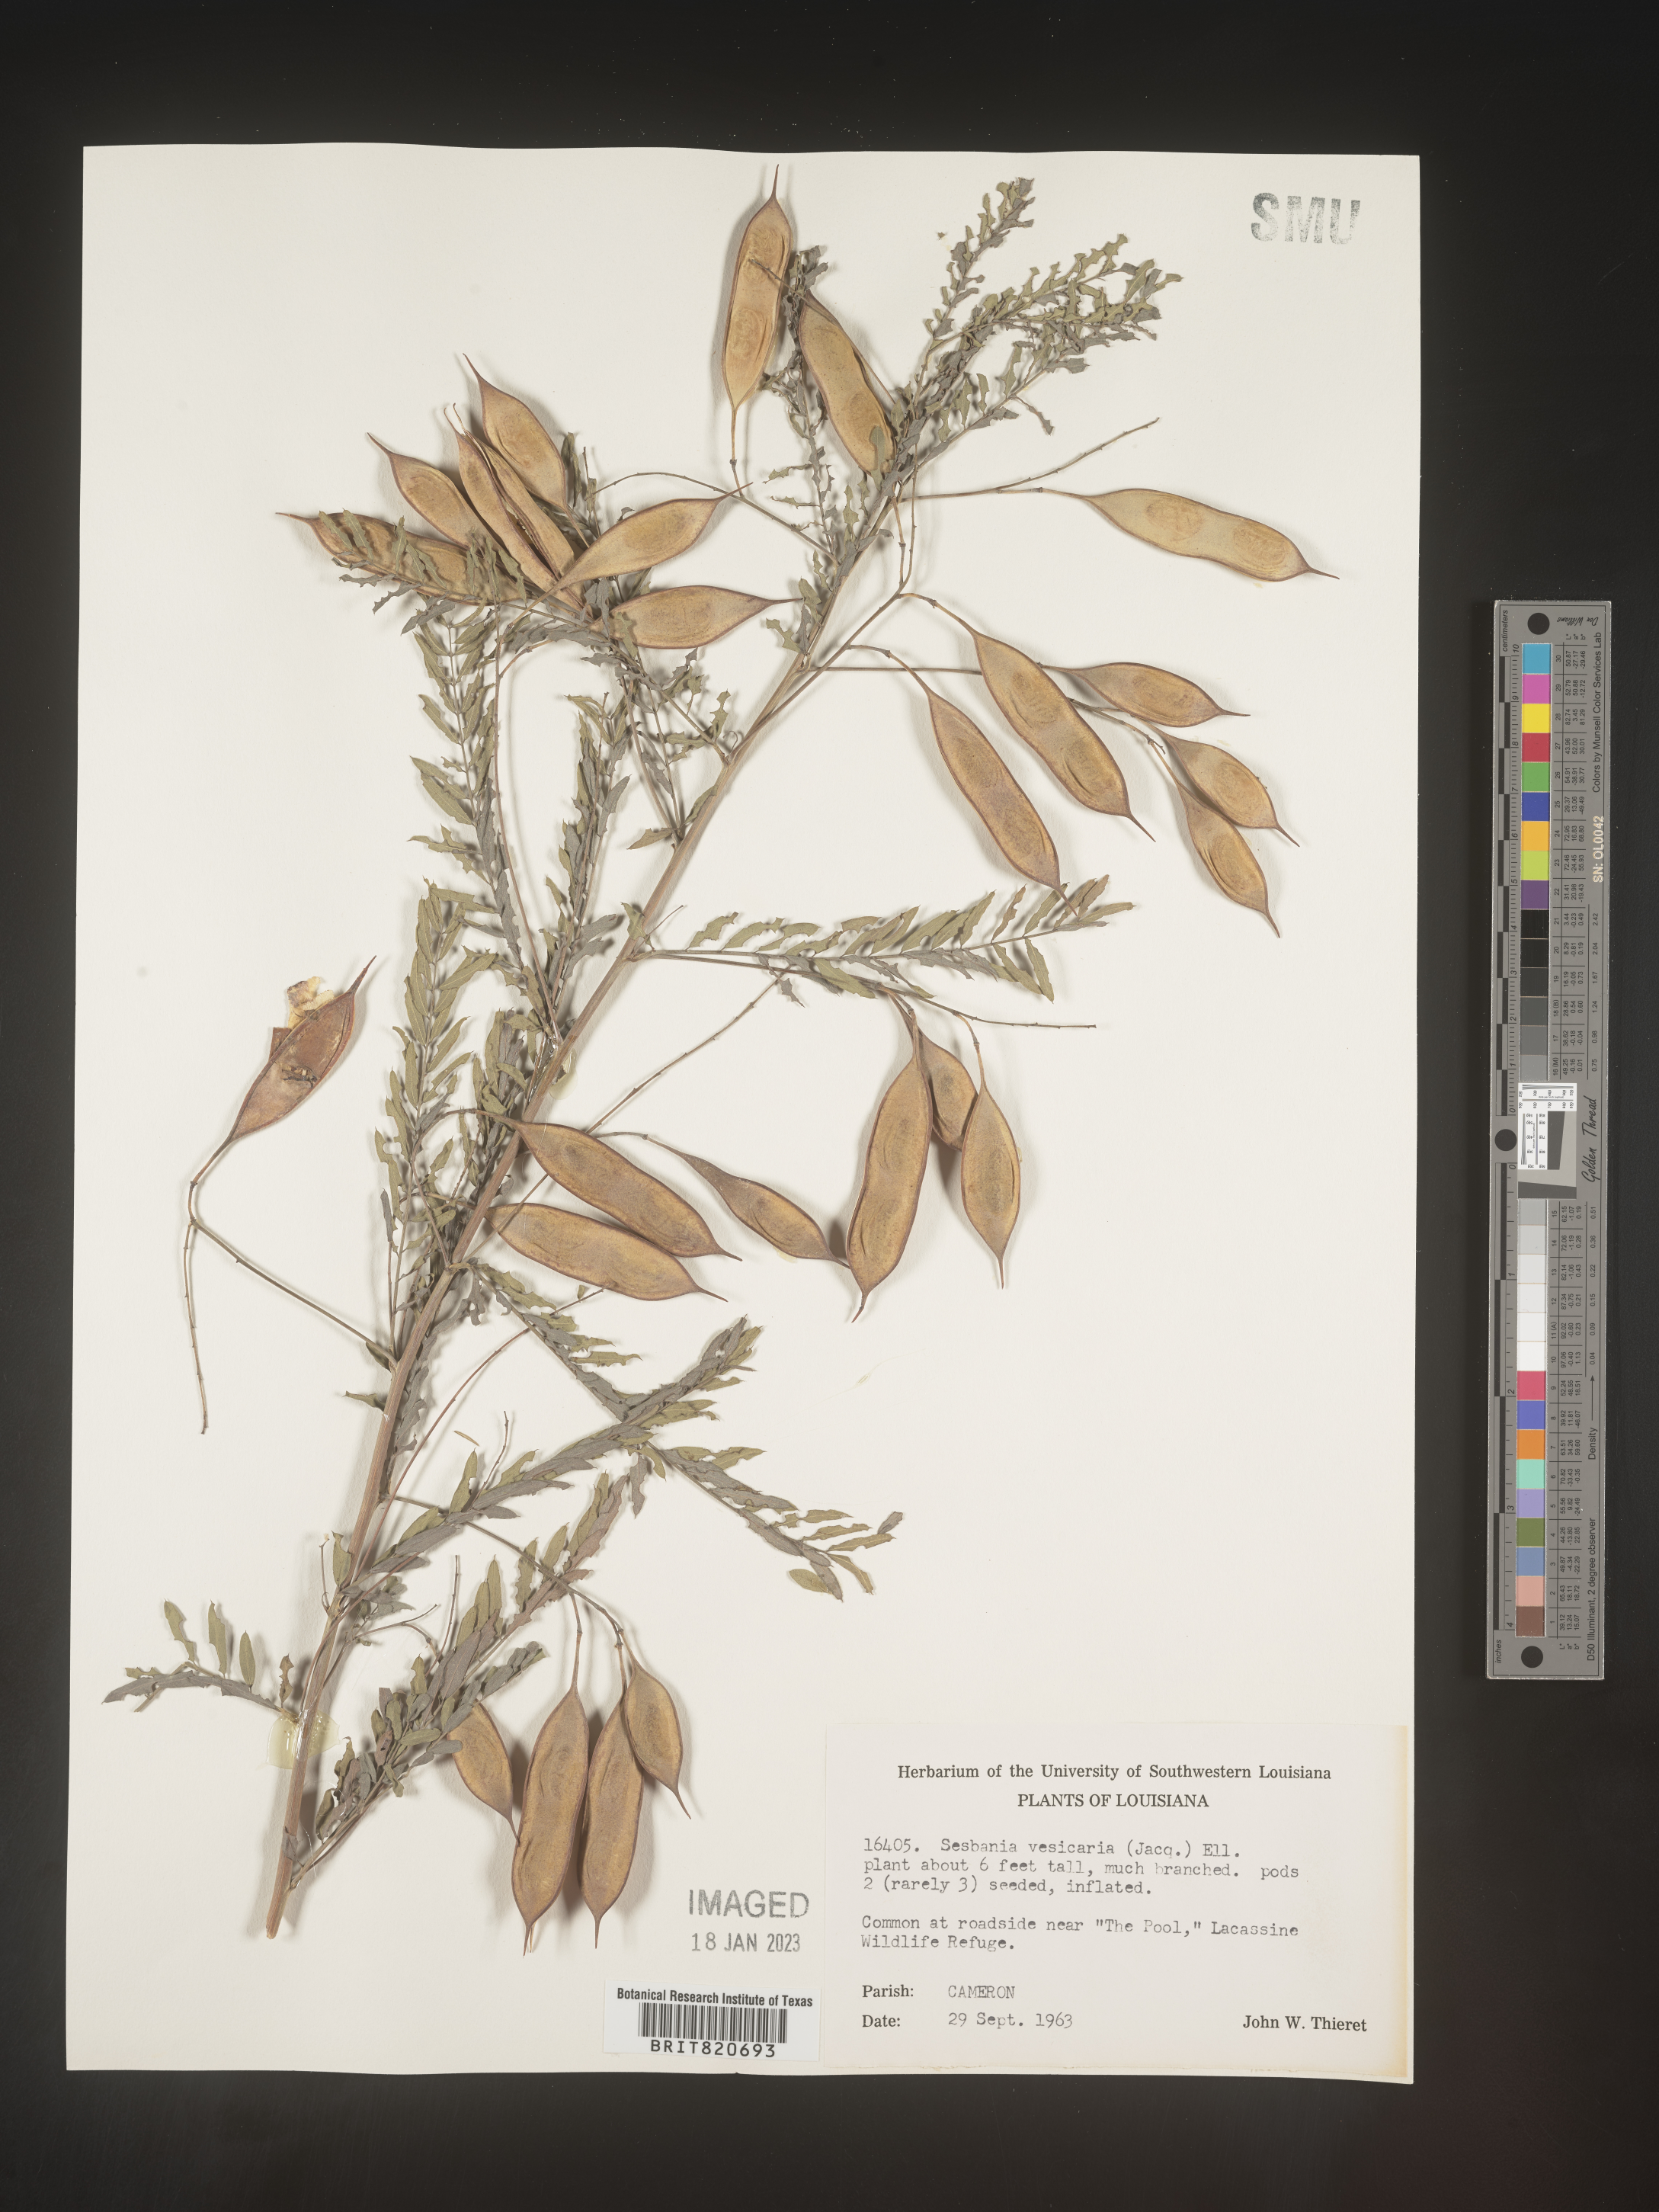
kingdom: Plantae
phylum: Tracheophyta
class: Magnoliopsida
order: Fabales
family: Fabaceae
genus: Sesbania
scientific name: Sesbania vesicaria
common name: Bagpod
